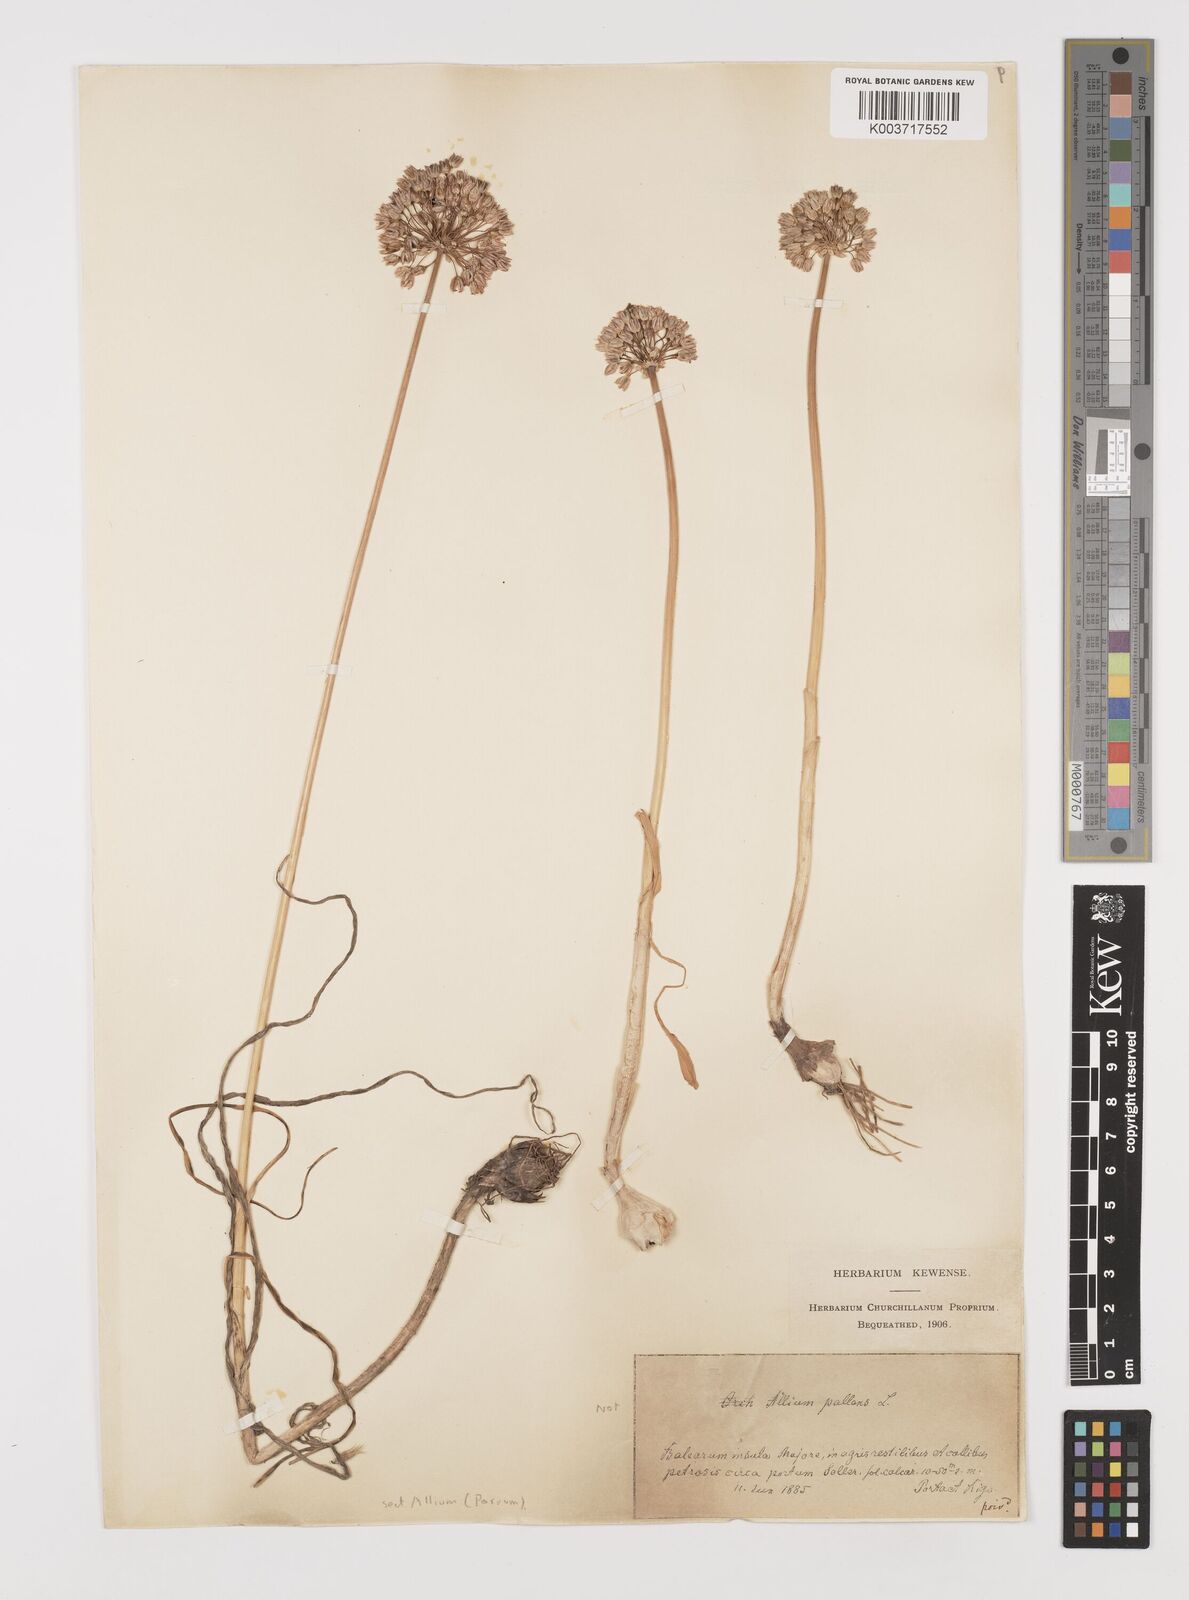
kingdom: Plantae
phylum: Tracheophyta
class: Liliopsida
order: Asparagales
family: Amaryllidaceae
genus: Allium
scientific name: Allium
